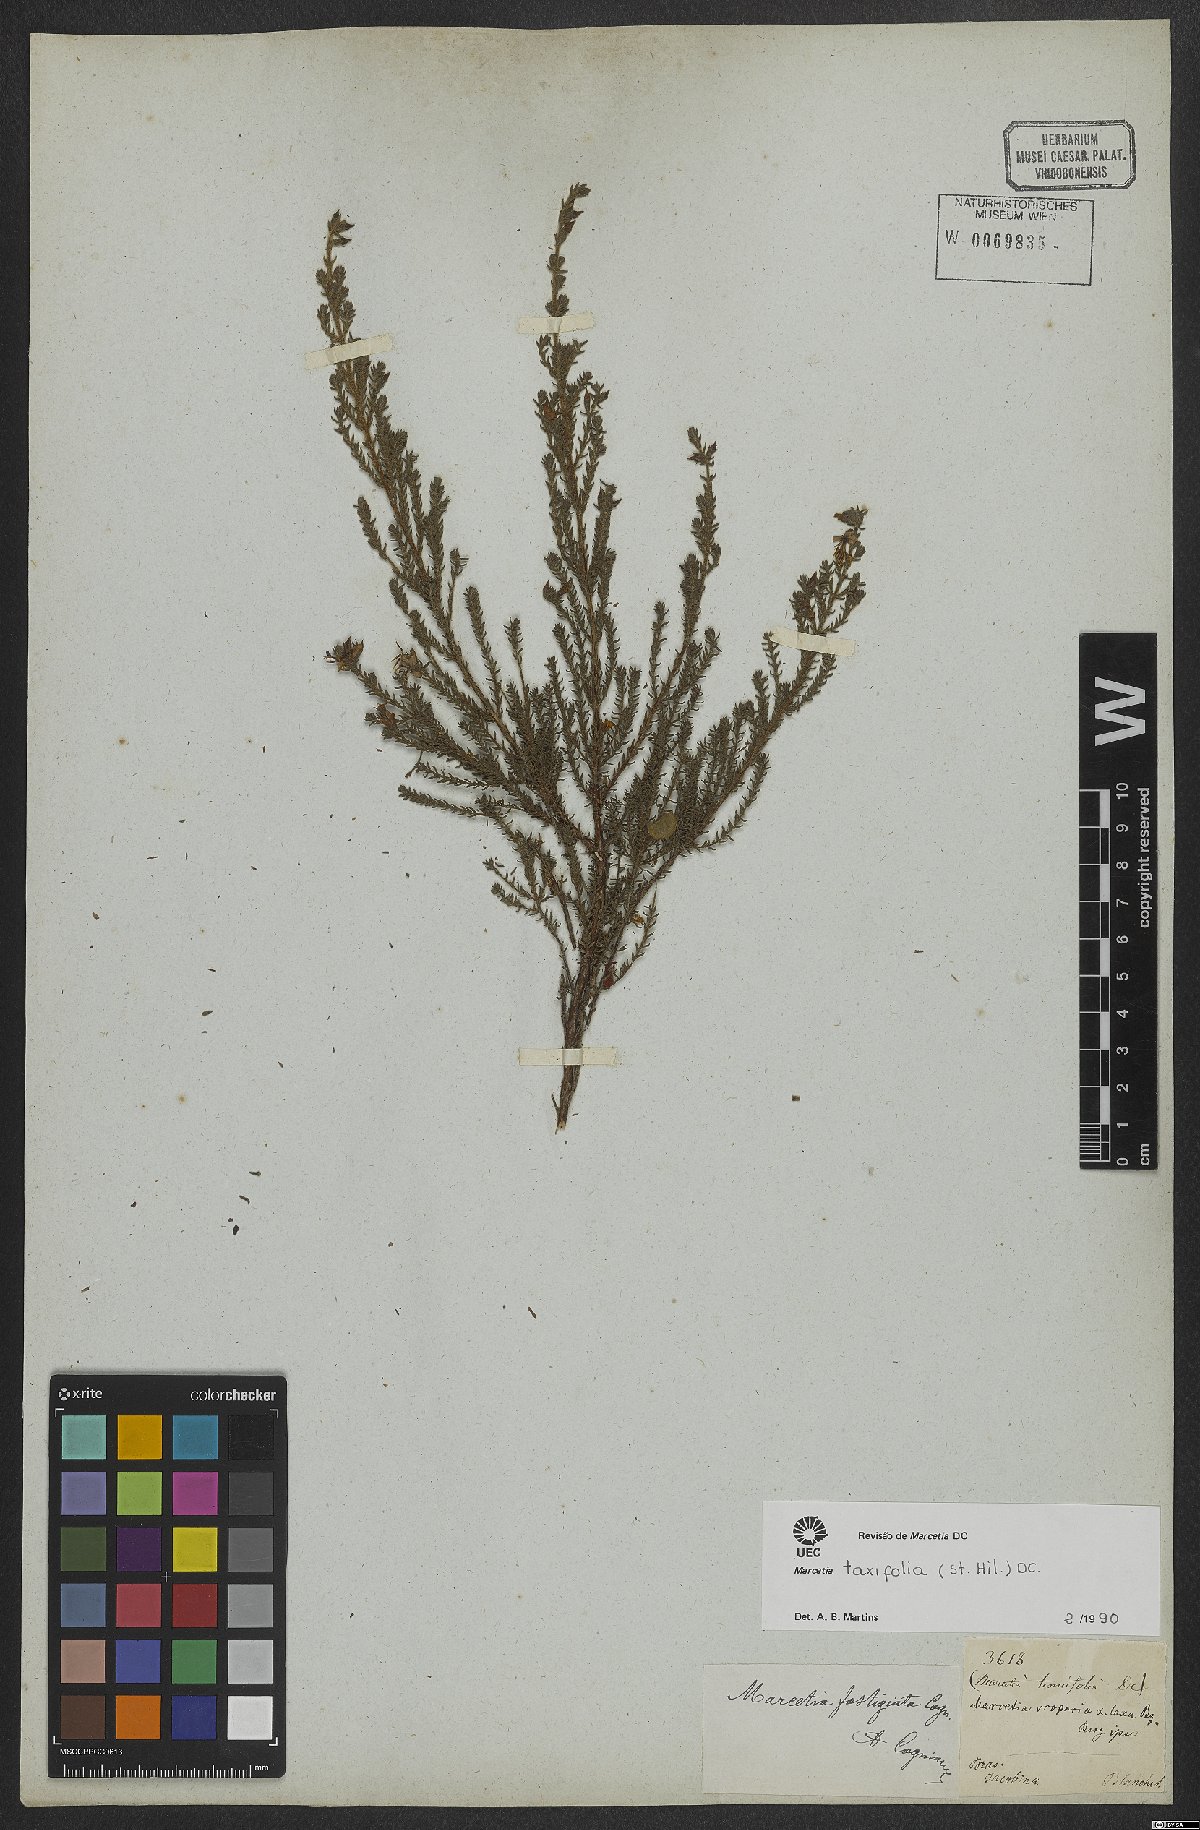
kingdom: Plantae
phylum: Tracheophyta
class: Magnoliopsida
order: Myrtales
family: Melastomataceae
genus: Marcetia
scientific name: Marcetia taxifolia
